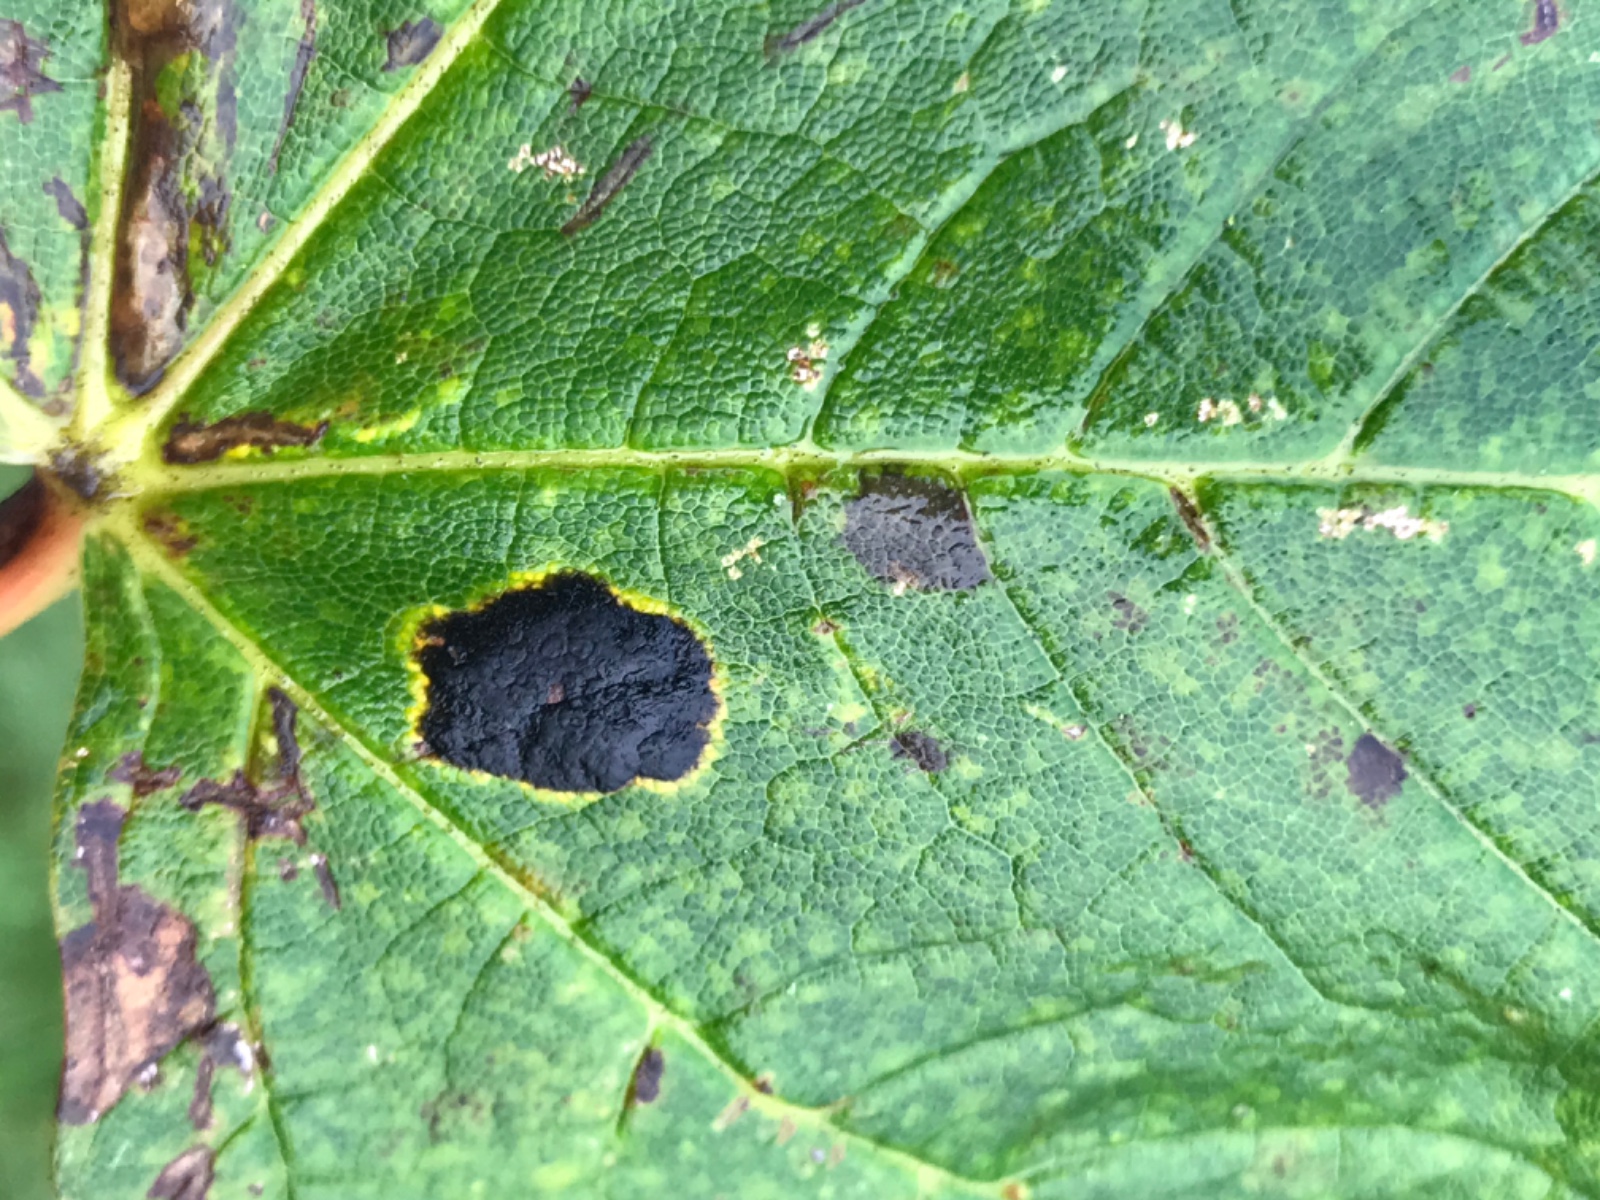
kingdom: Fungi
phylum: Ascomycota
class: Leotiomycetes
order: Rhytismatales
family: Rhytismataceae
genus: Rhytisma
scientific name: Rhytisma acerinum
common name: ahorn-rynkeplet
